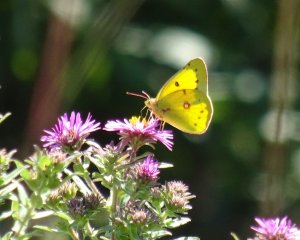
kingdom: Animalia
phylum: Arthropoda
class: Insecta
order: Lepidoptera
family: Pieridae
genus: Colias
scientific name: Colias philodice
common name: Clouded Sulphur
